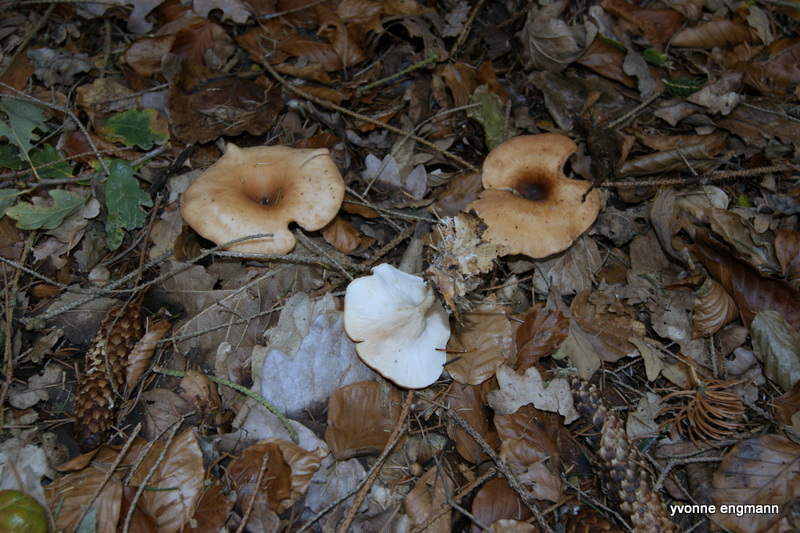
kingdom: Fungi
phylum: Basidiomycota
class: Agaricomycetes
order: Agaricales
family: Tricholomataceae
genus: Paralepista
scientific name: Paralepista flaccida
